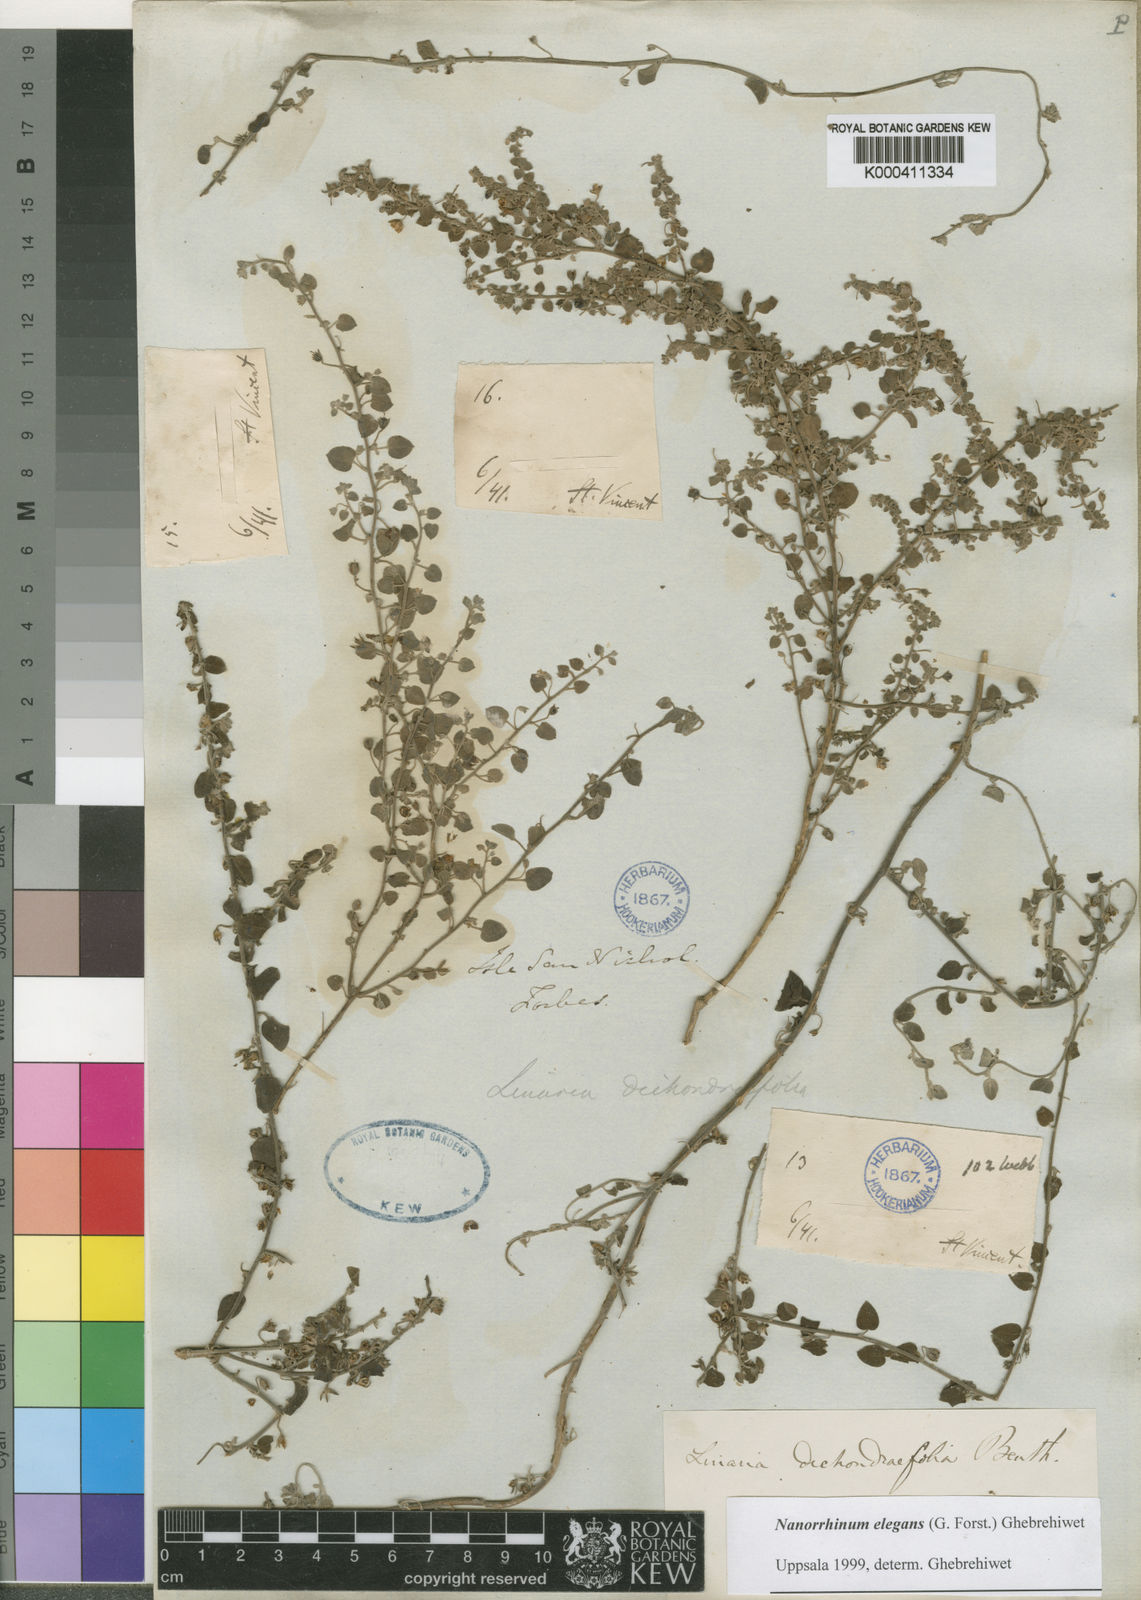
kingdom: Plantae
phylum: Tracheophyta
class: Magnoliopsida
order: Lamiales
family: Plantaginaceae
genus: Nanorrhinum
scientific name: Nanorrhinum dichondrifolium
